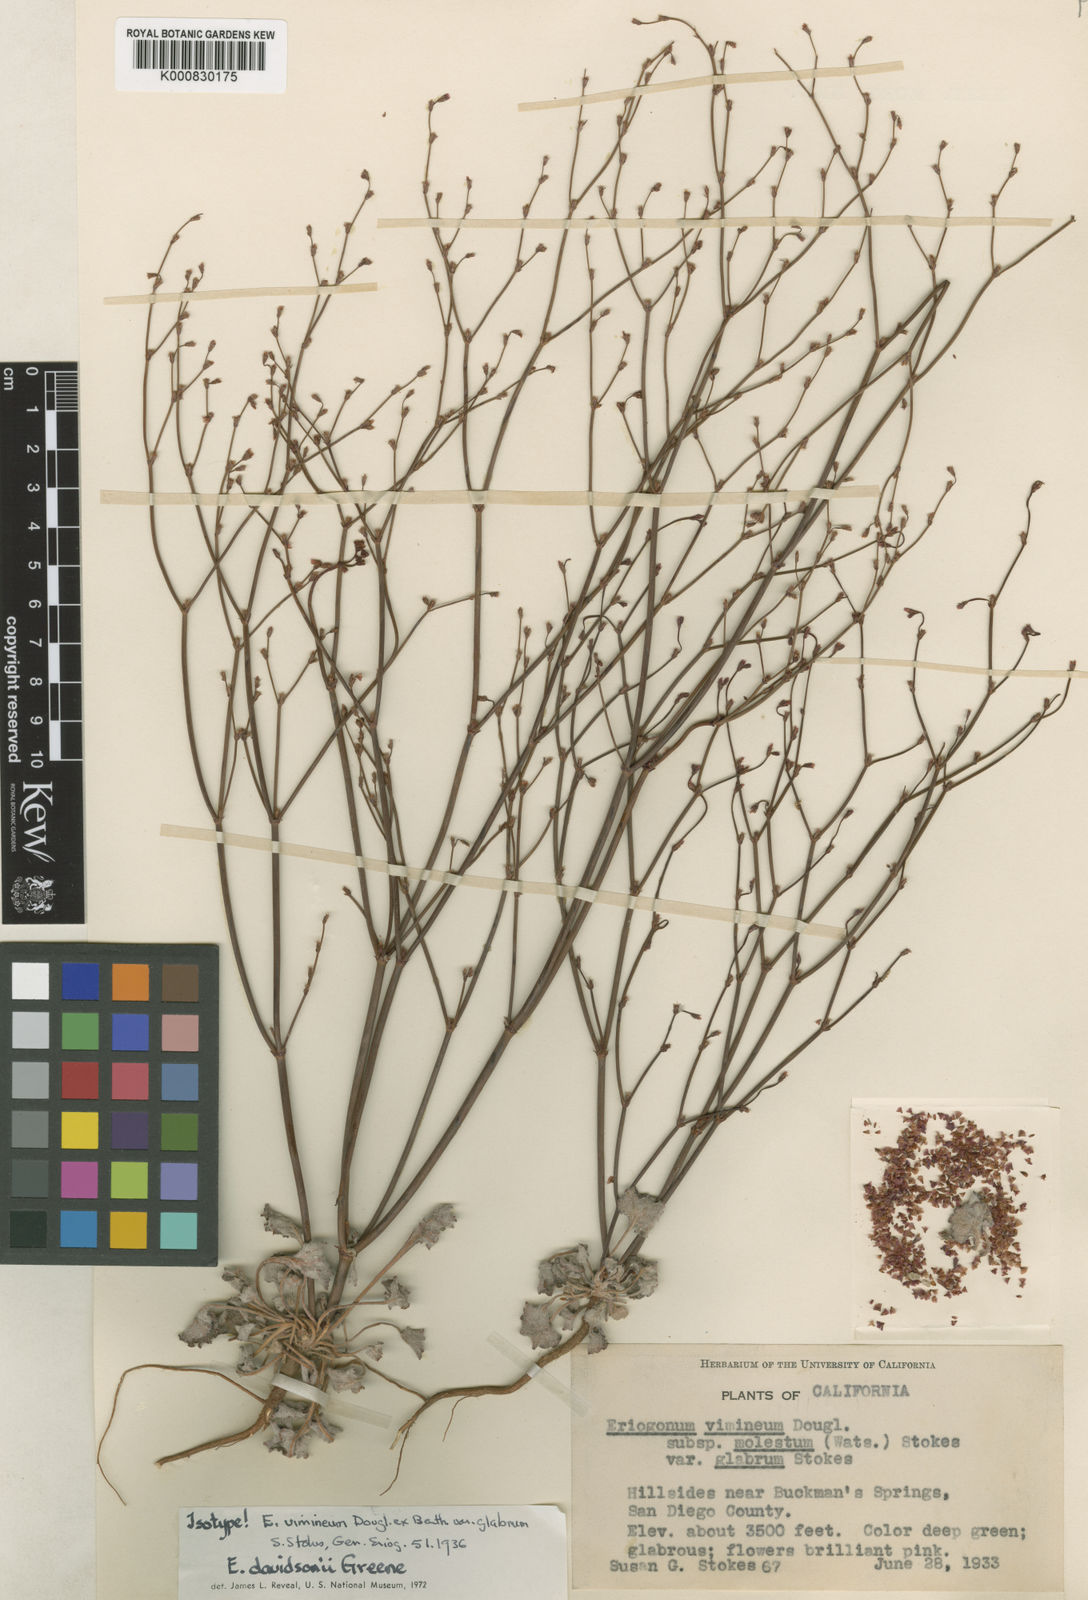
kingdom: Plantae
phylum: Tracheophyta
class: Magnoliopsida
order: Caryophyllales
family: Polygonaceae
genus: Eriogonum
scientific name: Eriogonum davidsonii
